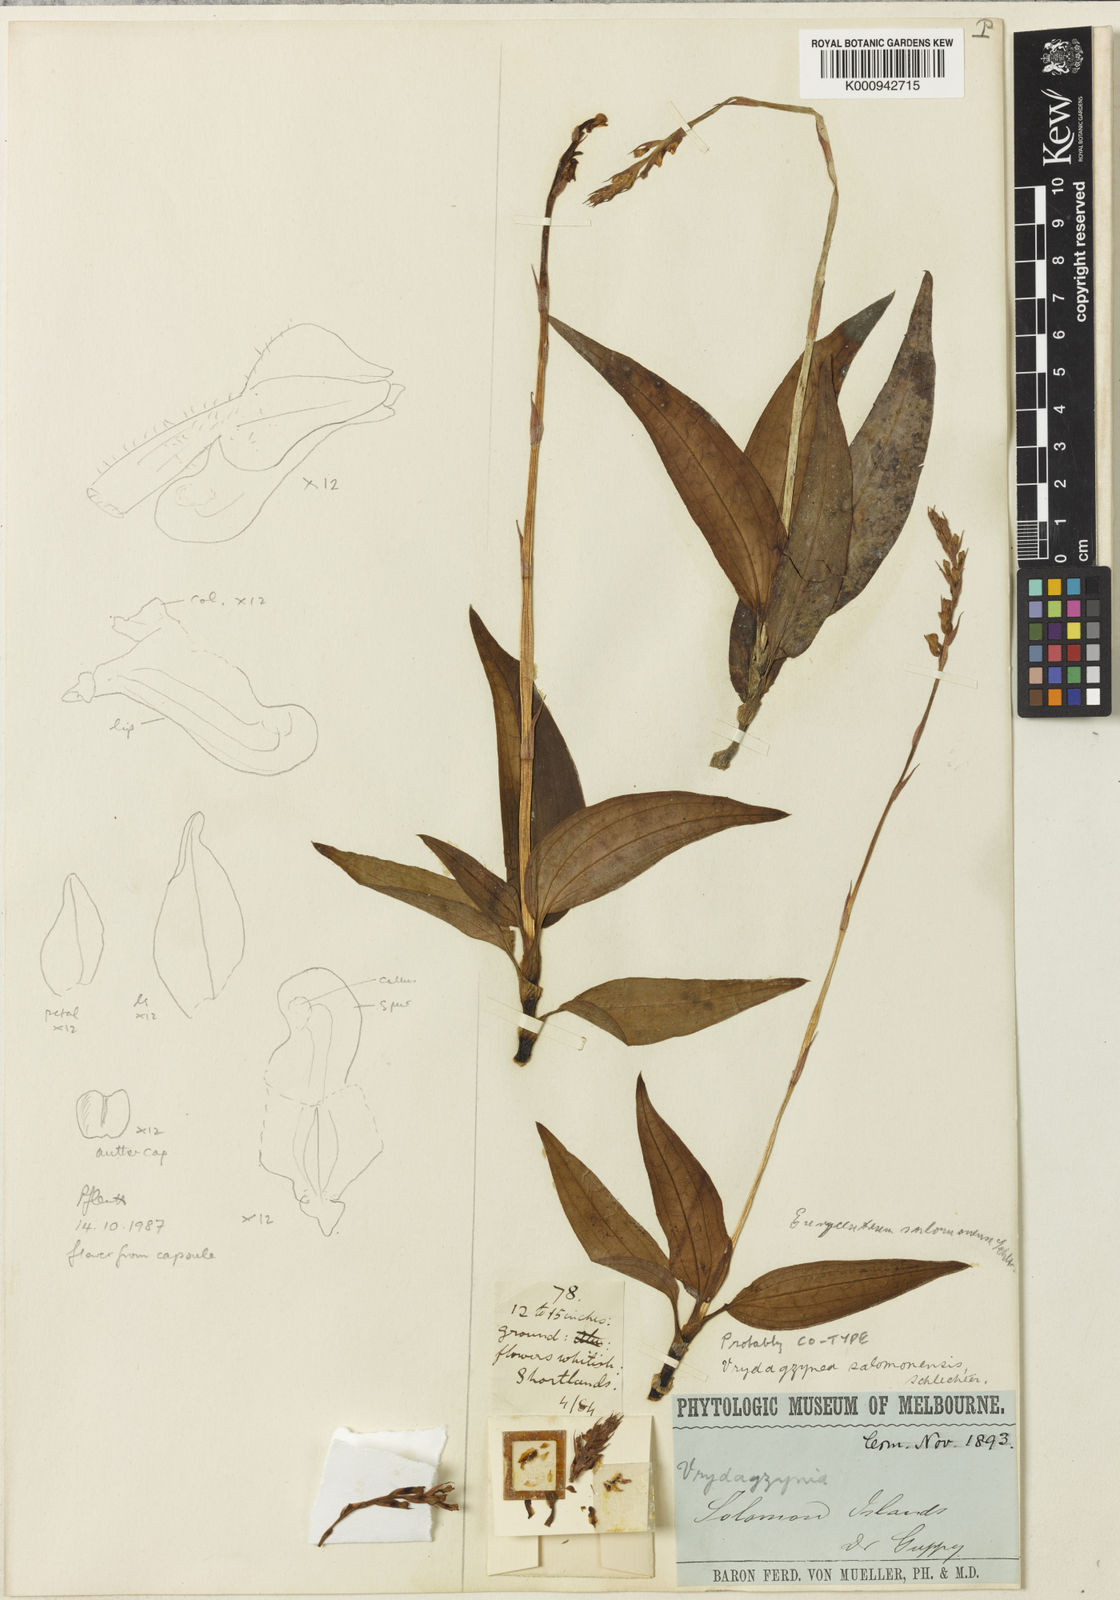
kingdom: Plantae
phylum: Tracheophyta
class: Liliopsida
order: Asparagales
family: Orchidaceae
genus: Eurycentrum
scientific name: Eurycentrum salomonense
